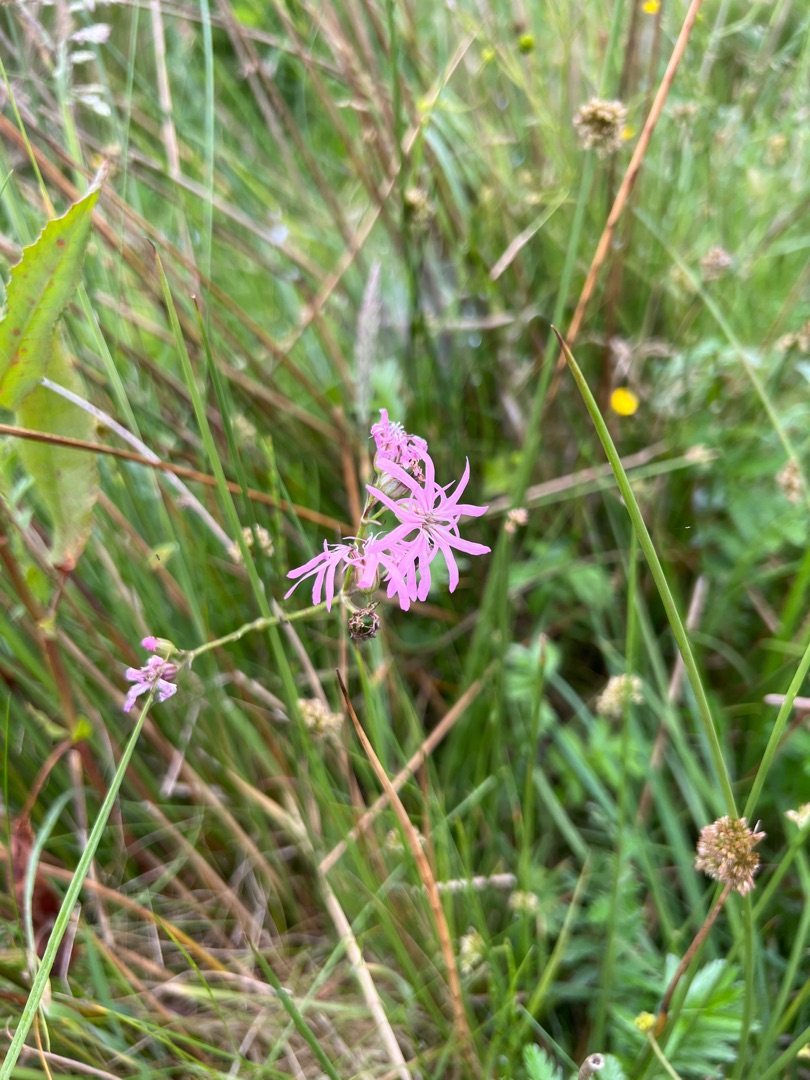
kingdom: Plantae
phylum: Tracheophyta
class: Magnoliopsida
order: Caryophyllales
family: Caryophyllaceae
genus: Silene
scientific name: Silene flos-cuculi
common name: Trævlekrone
